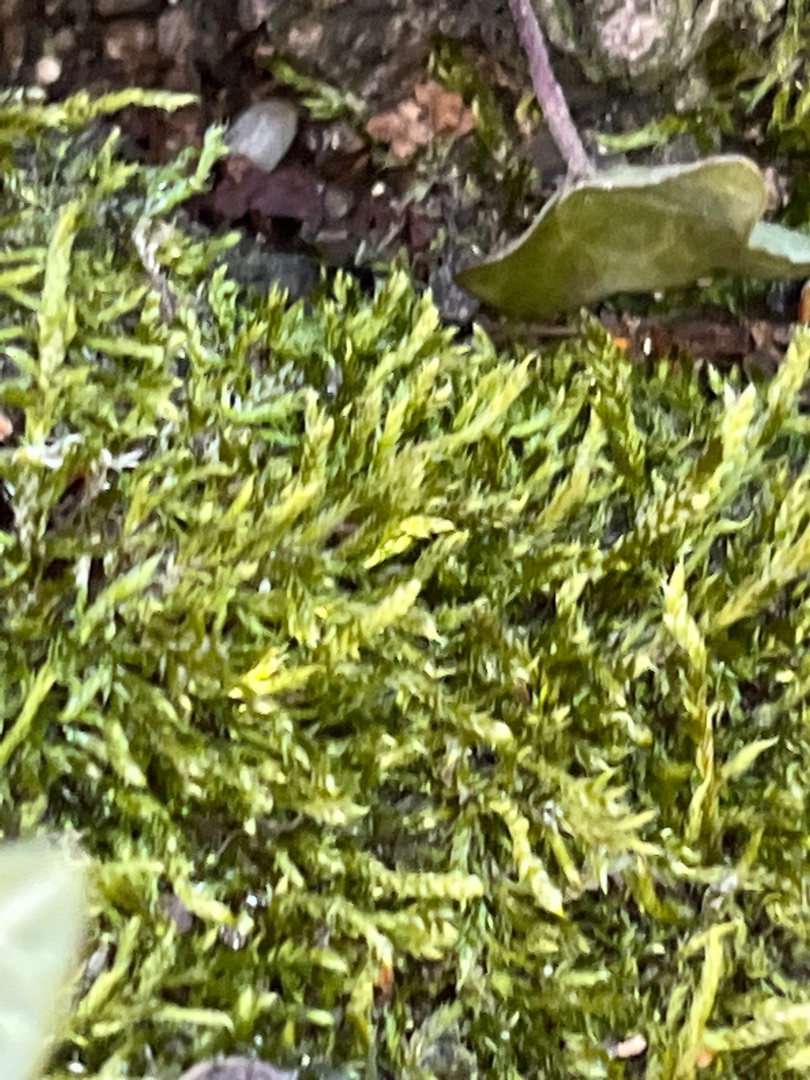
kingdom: Plantae
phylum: Bryophyta
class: Bryopsida
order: Hypnales
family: Hypnaceae
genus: Hypnum
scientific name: Hypnum
